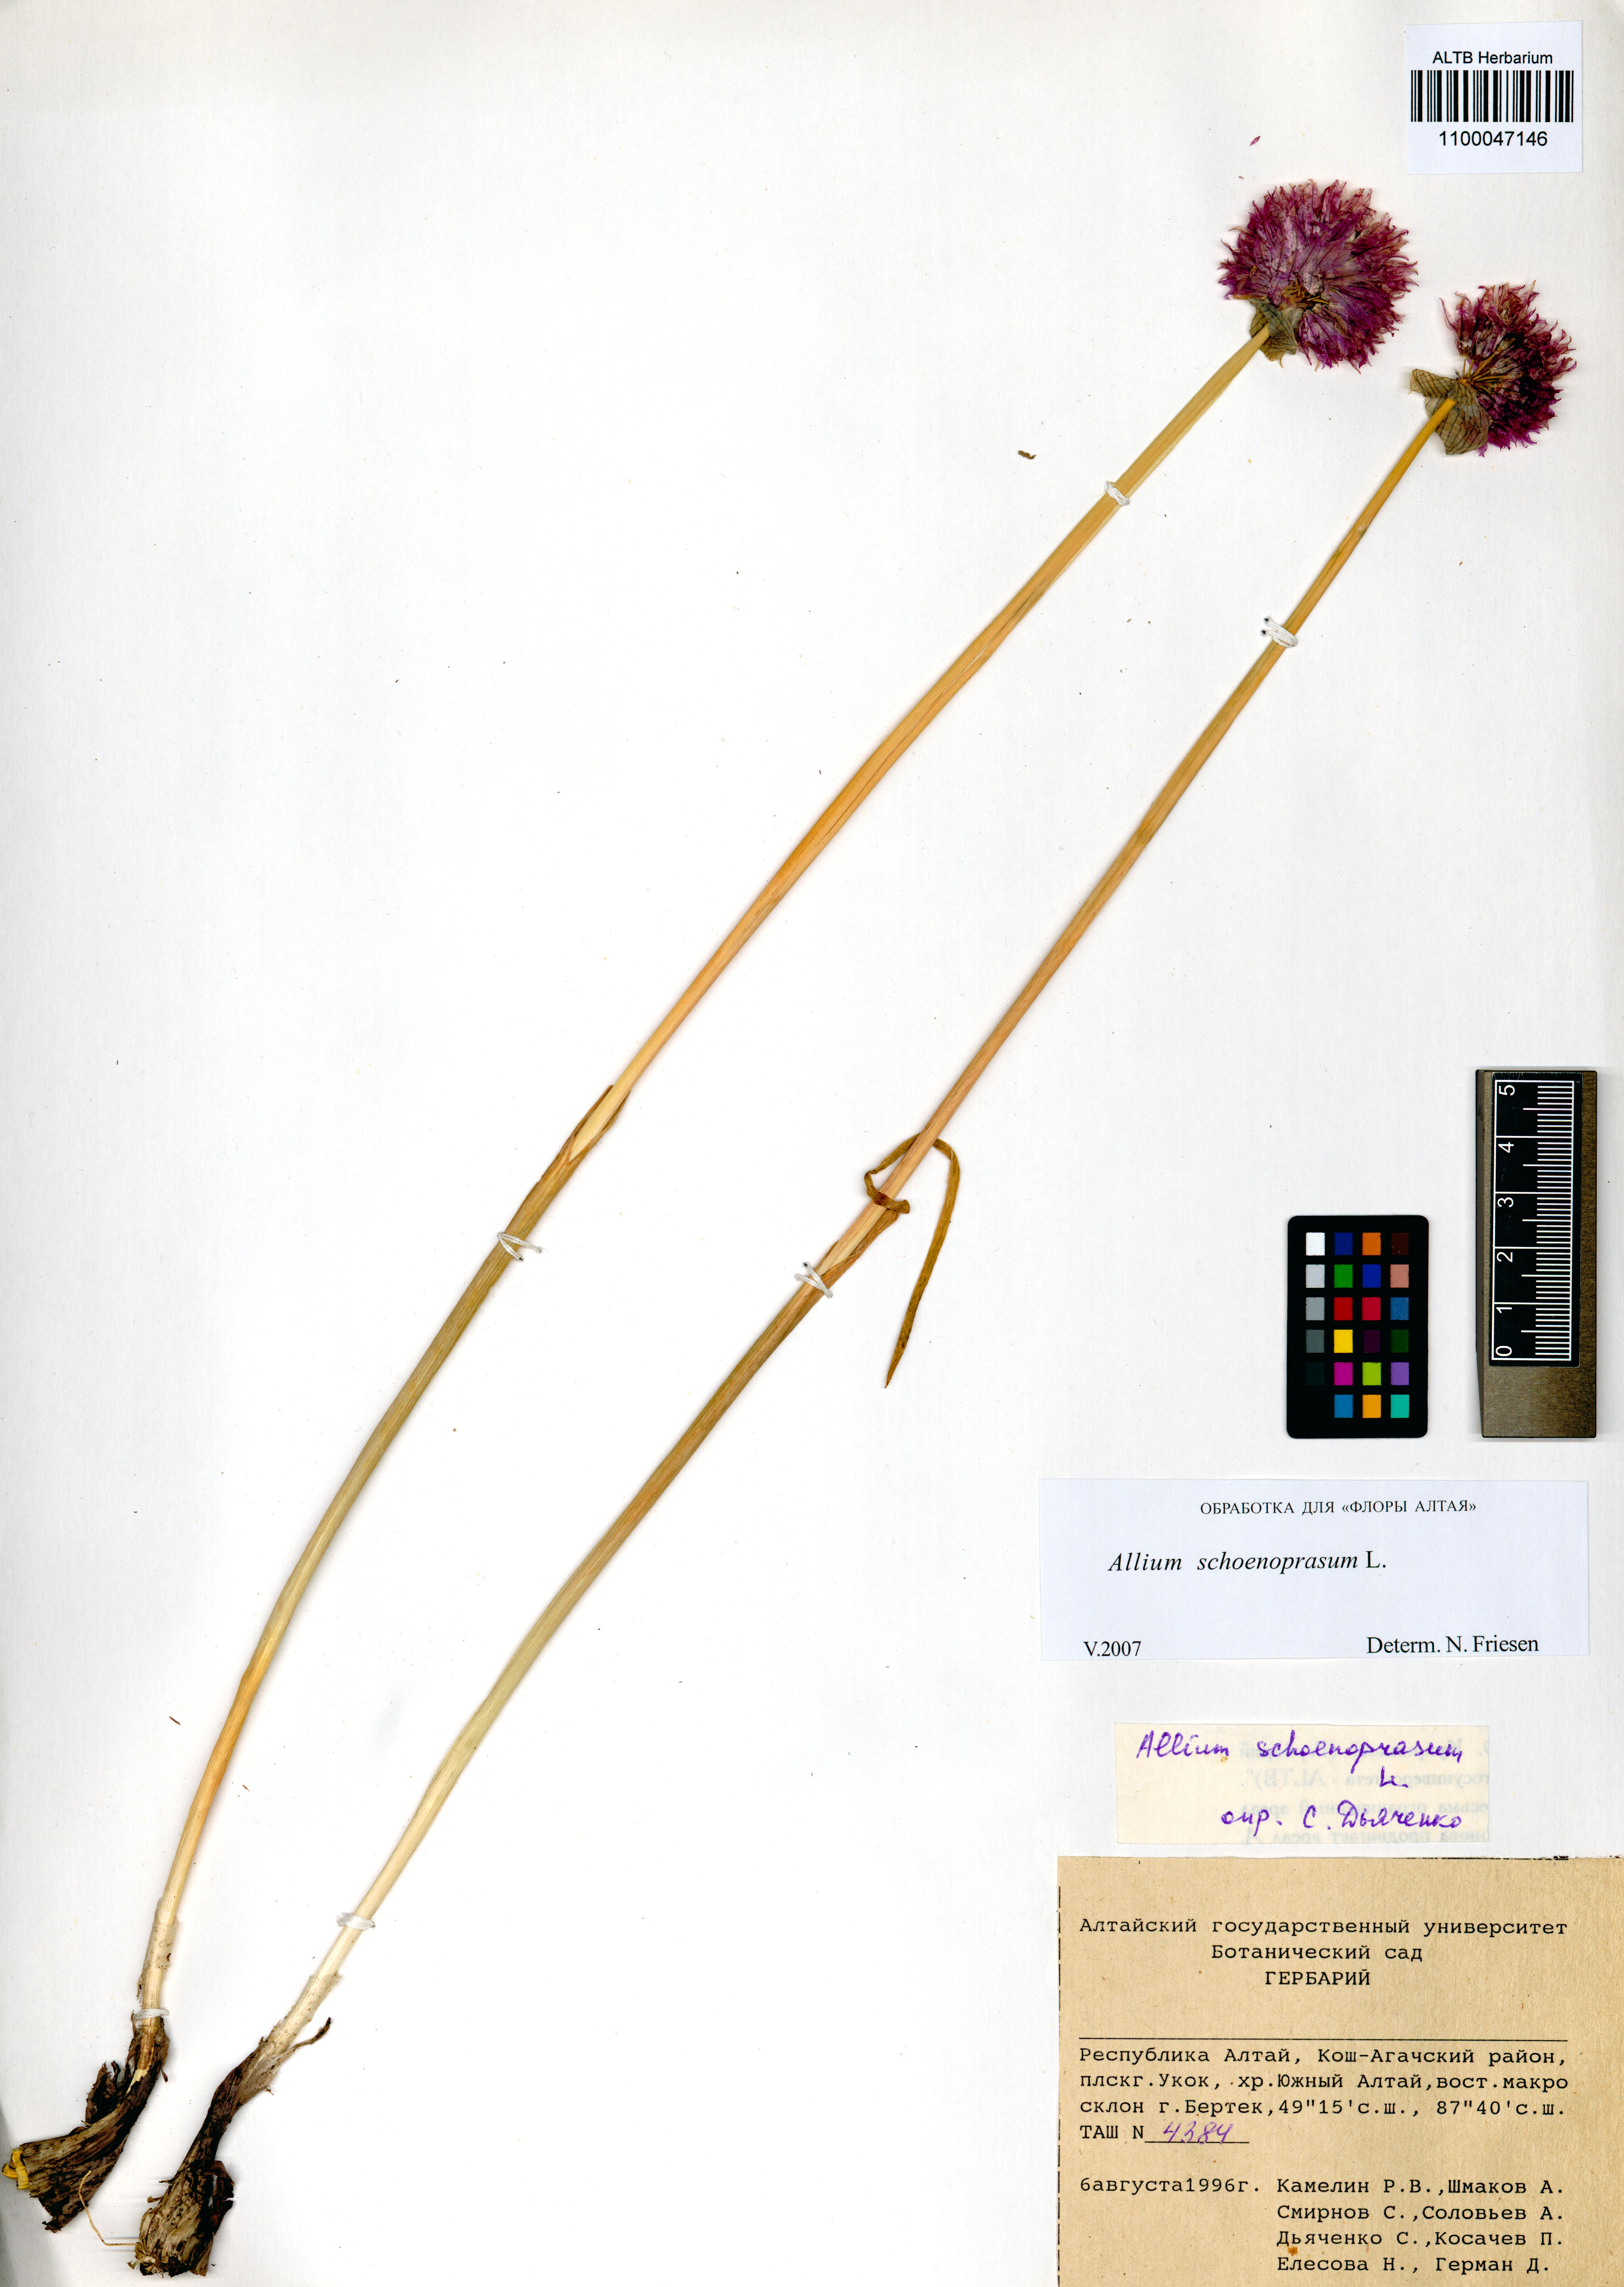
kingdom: Plantae
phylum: Tracheophyta
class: Liliopsida
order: Asparagales
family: Amaryllidaceae
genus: Allium
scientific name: Allium schoenoprasum
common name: Chives
